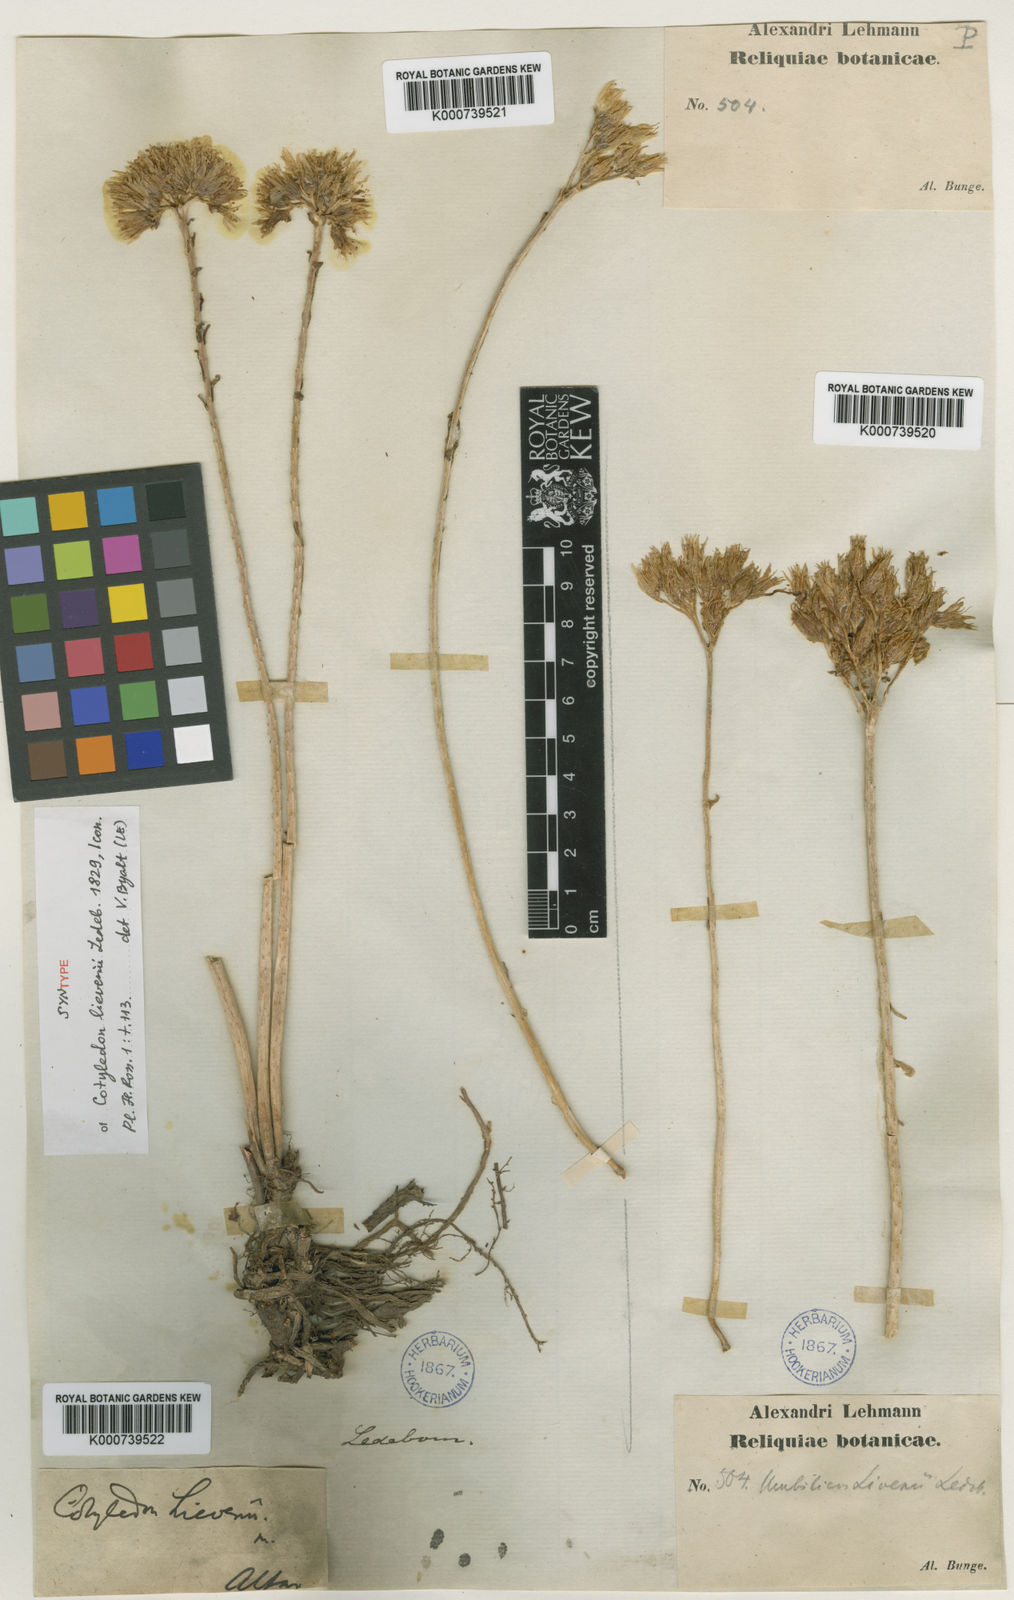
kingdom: Plantae
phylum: Tracheophyta
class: Magnoliopsida
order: Saxifragales
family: Crassulaceae
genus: Pseudosedum
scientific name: Pseudosedum lievenii
